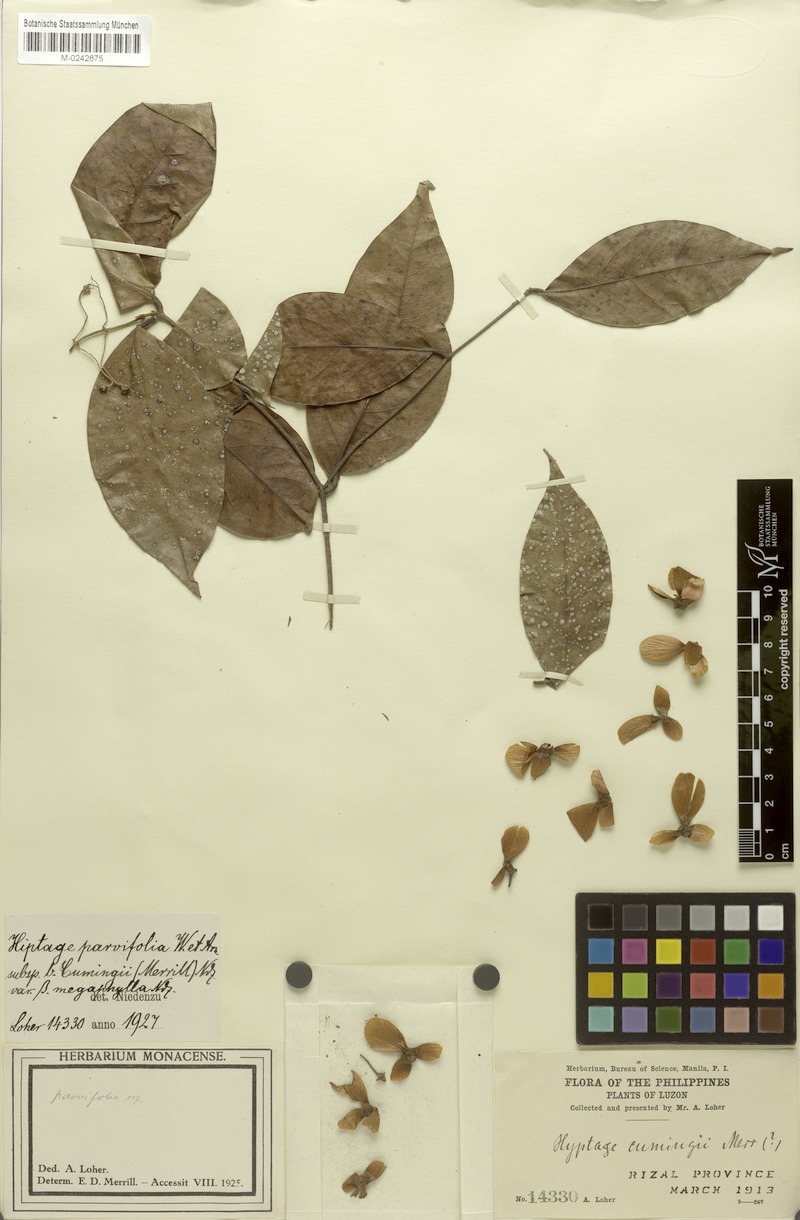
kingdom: Plantae
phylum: Tracheophyta
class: Magnoliopsida
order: Malpighiales
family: Malpighiaceae
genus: Hiptage
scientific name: Hiptage benghalensis
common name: Hiptage
